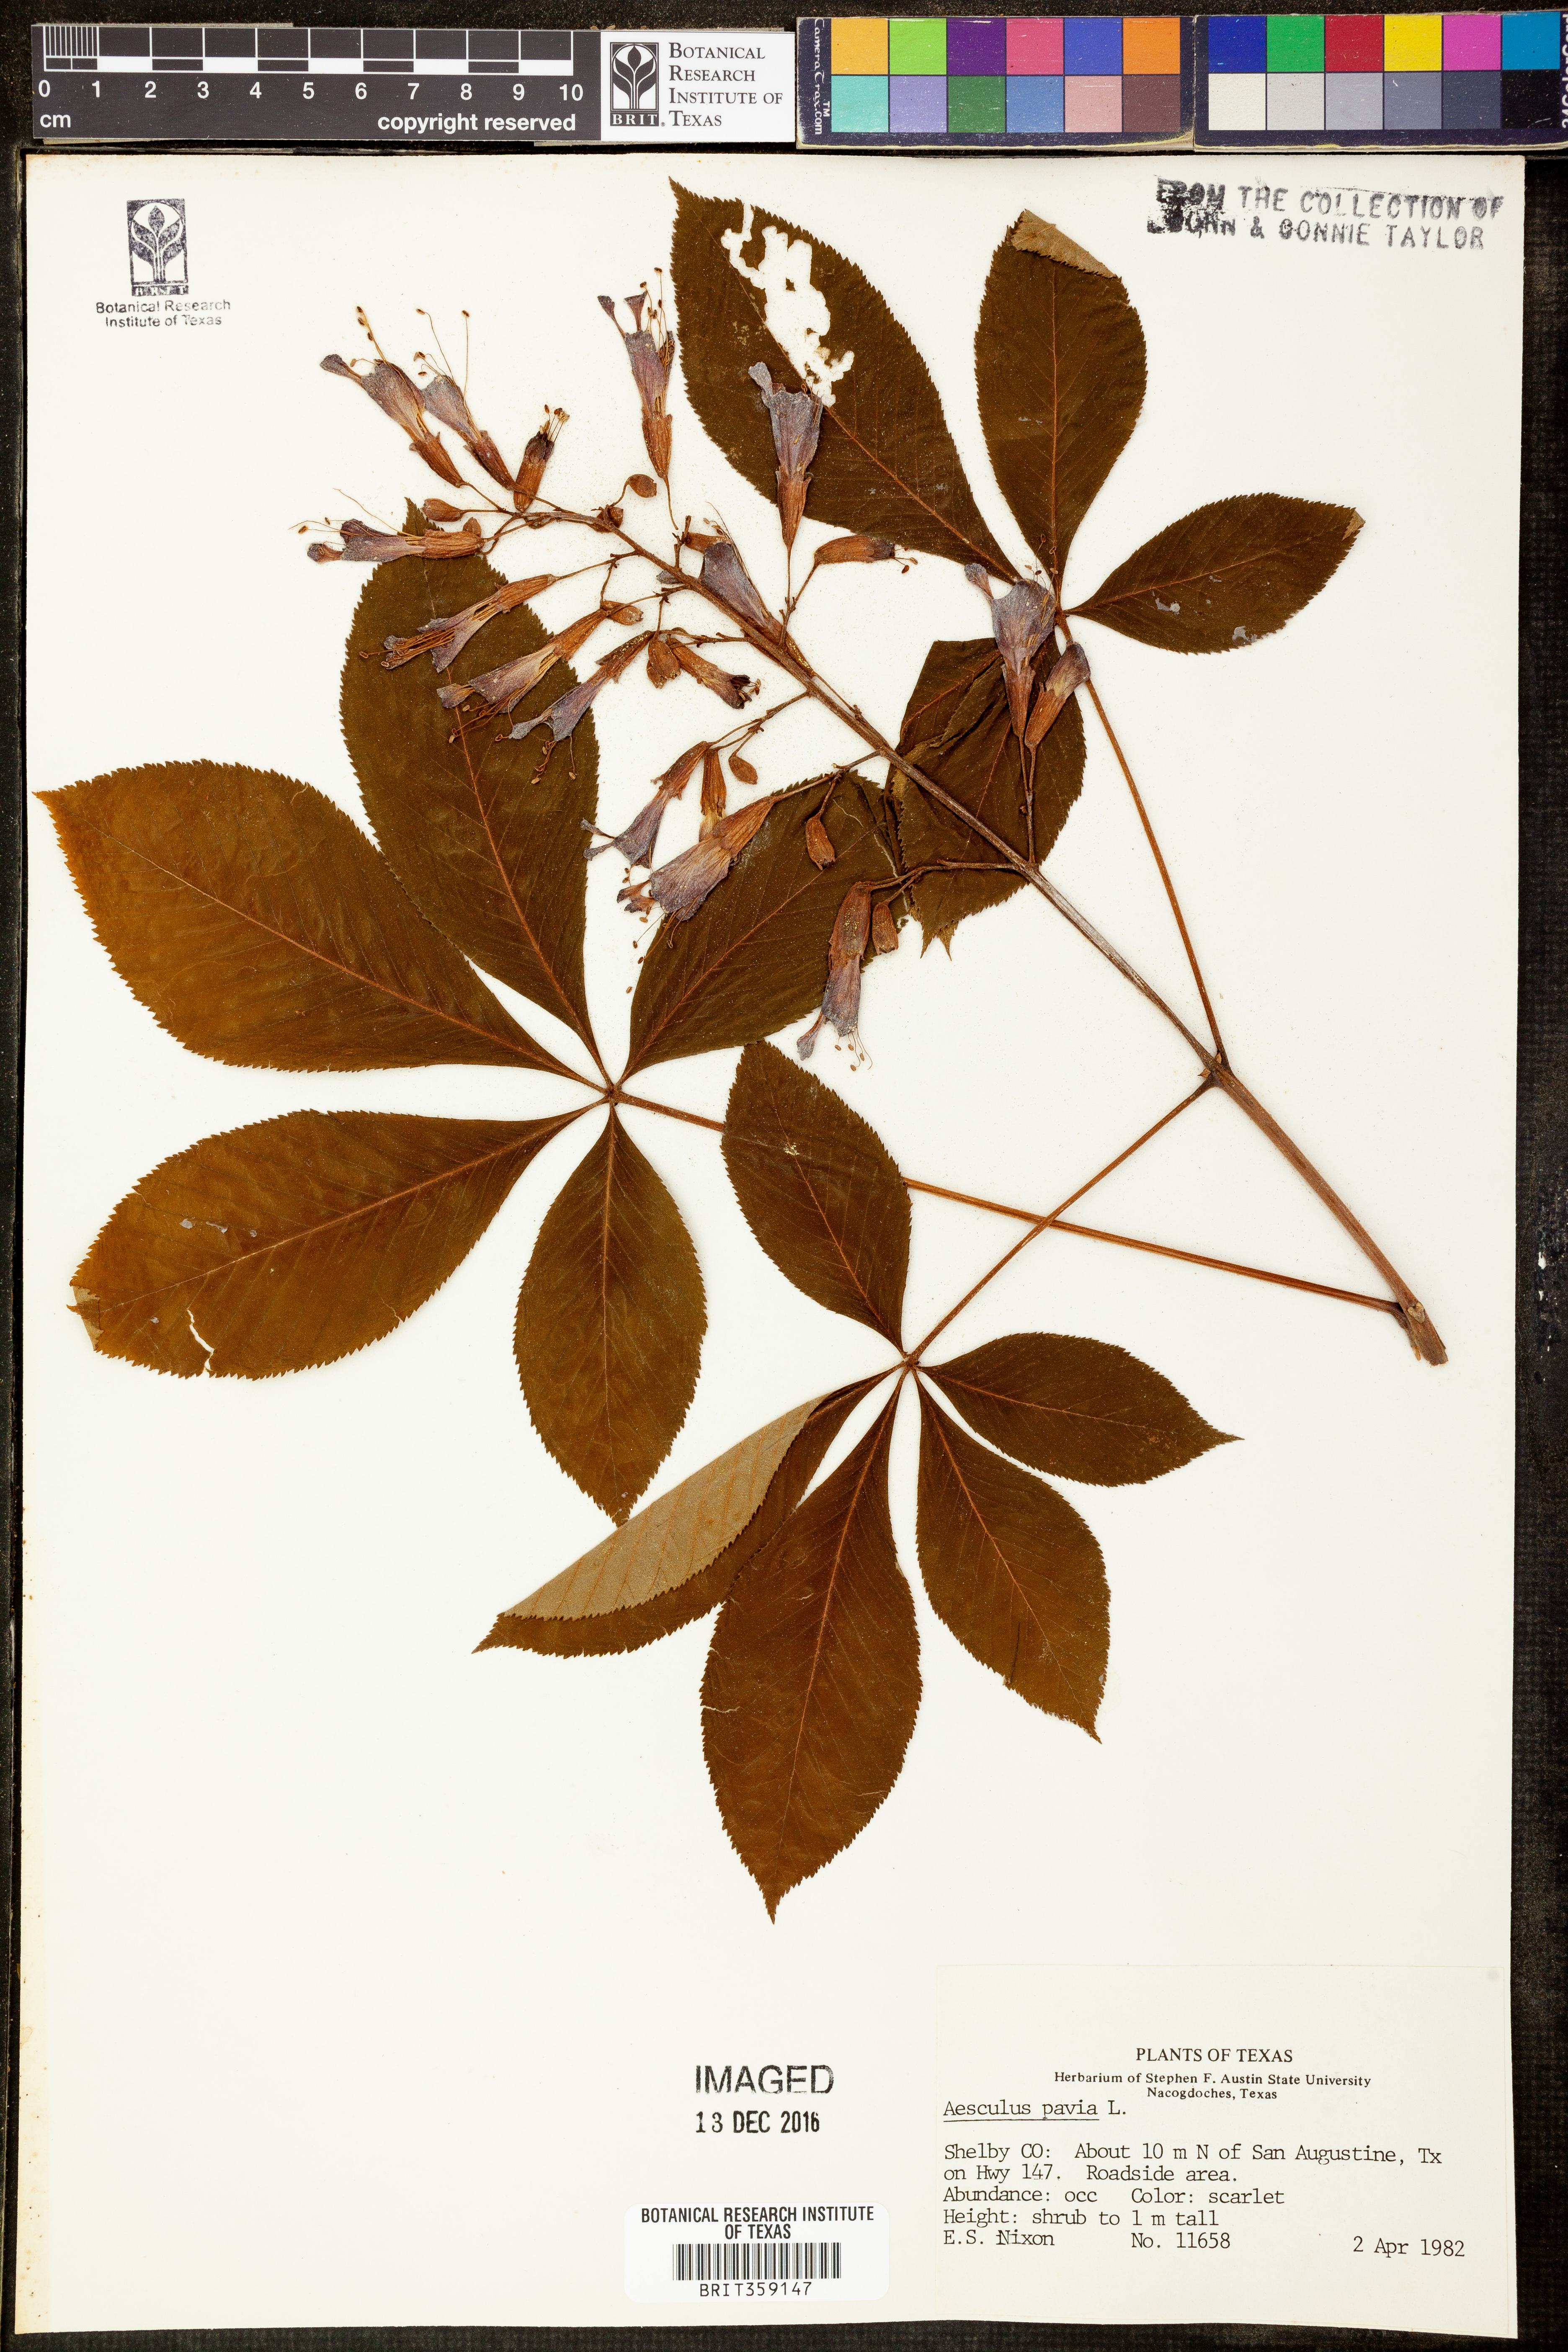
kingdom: Plantae
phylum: Tracheophyta
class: Magnoliopsida
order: Sapindales
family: Sapindaceae
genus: Aesculus
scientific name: Aesculus pavia
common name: Red buckeye
